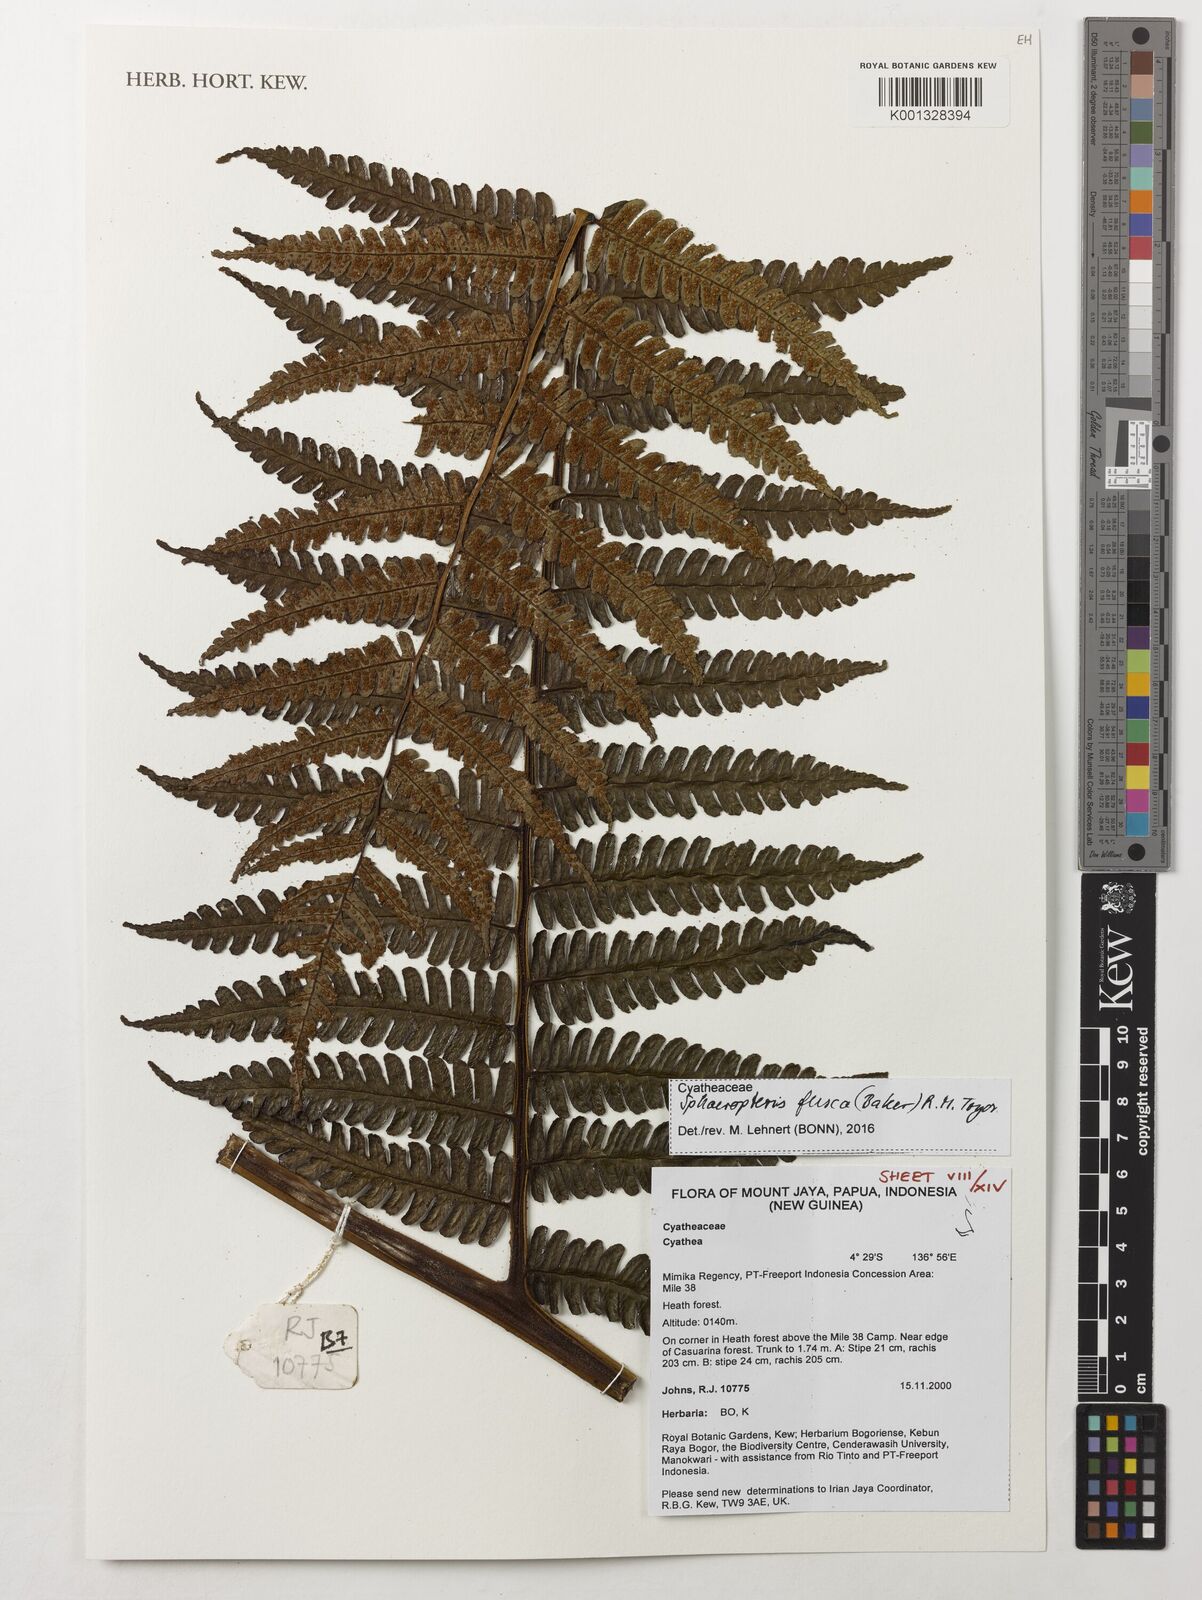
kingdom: Plantae
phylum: Tracheophyta
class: Polypodiopsida
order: Cyatheales
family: Cyatheaceae
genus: Sphaeropteris
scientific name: Sphaeropteris fusca
